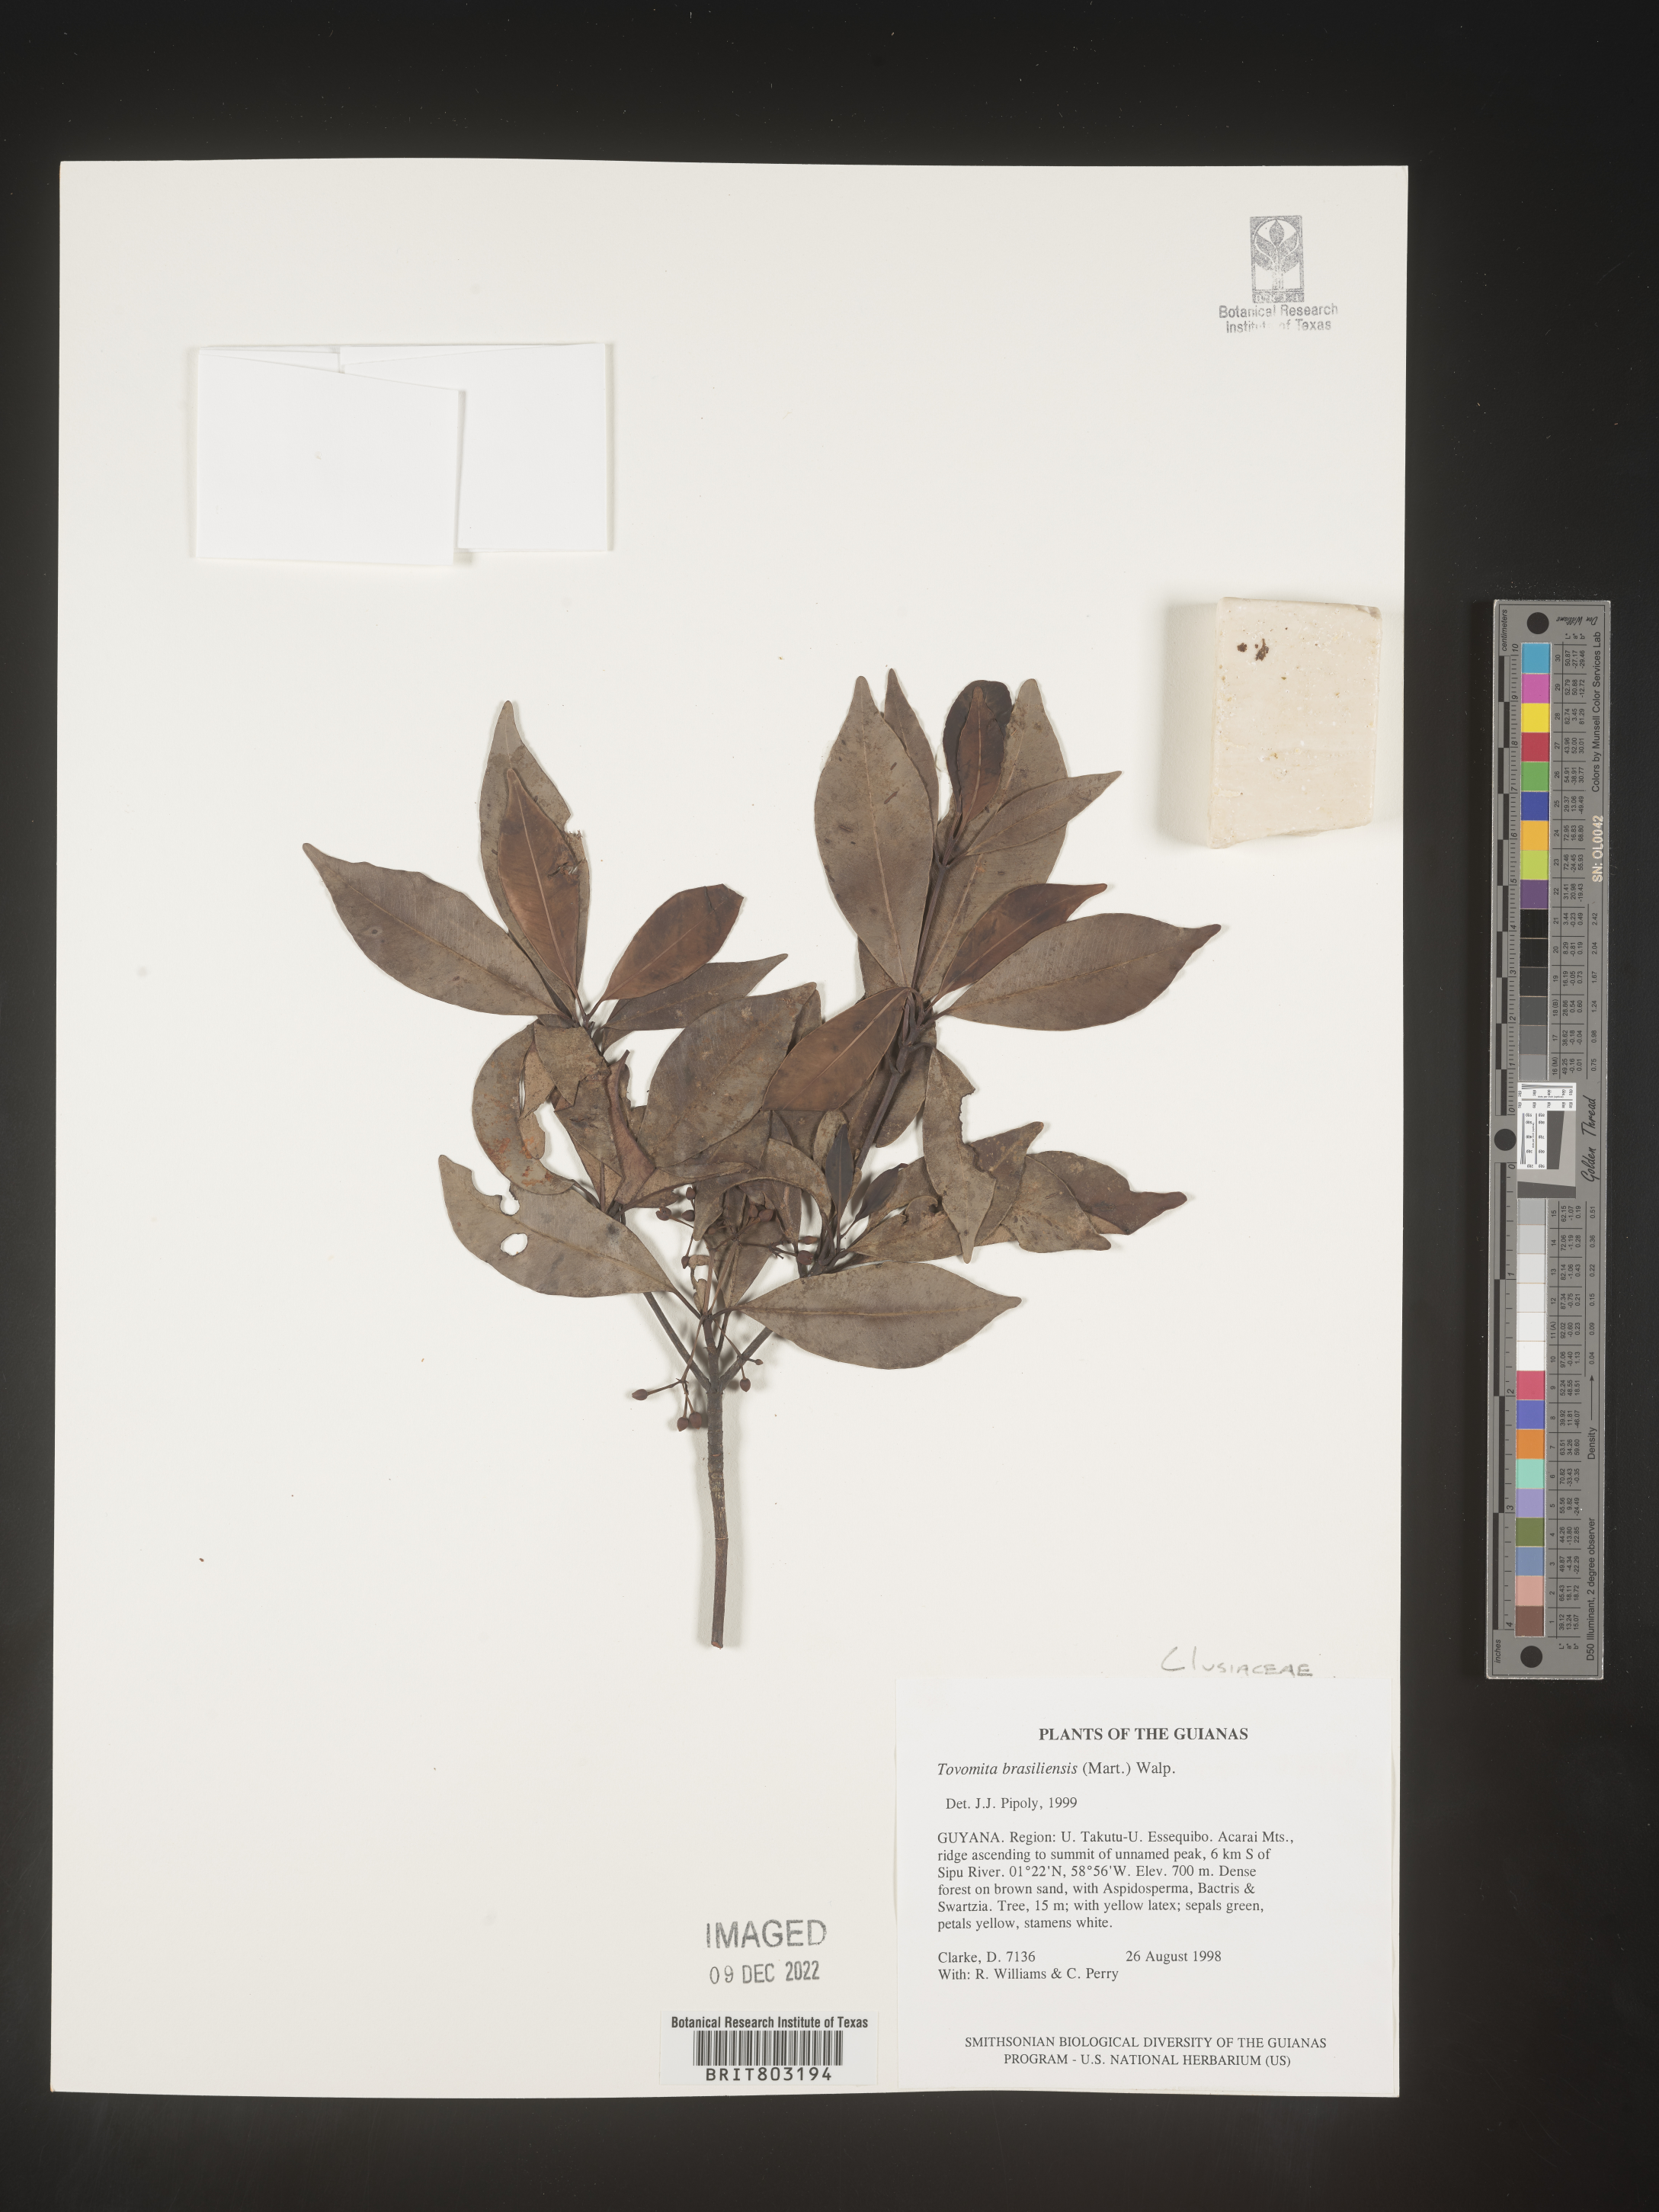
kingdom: Plantae
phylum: Tracheophyta
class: Magnoliopsida
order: Malpighiales
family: Clusiaceae
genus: Tovomita
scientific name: Tovomita
